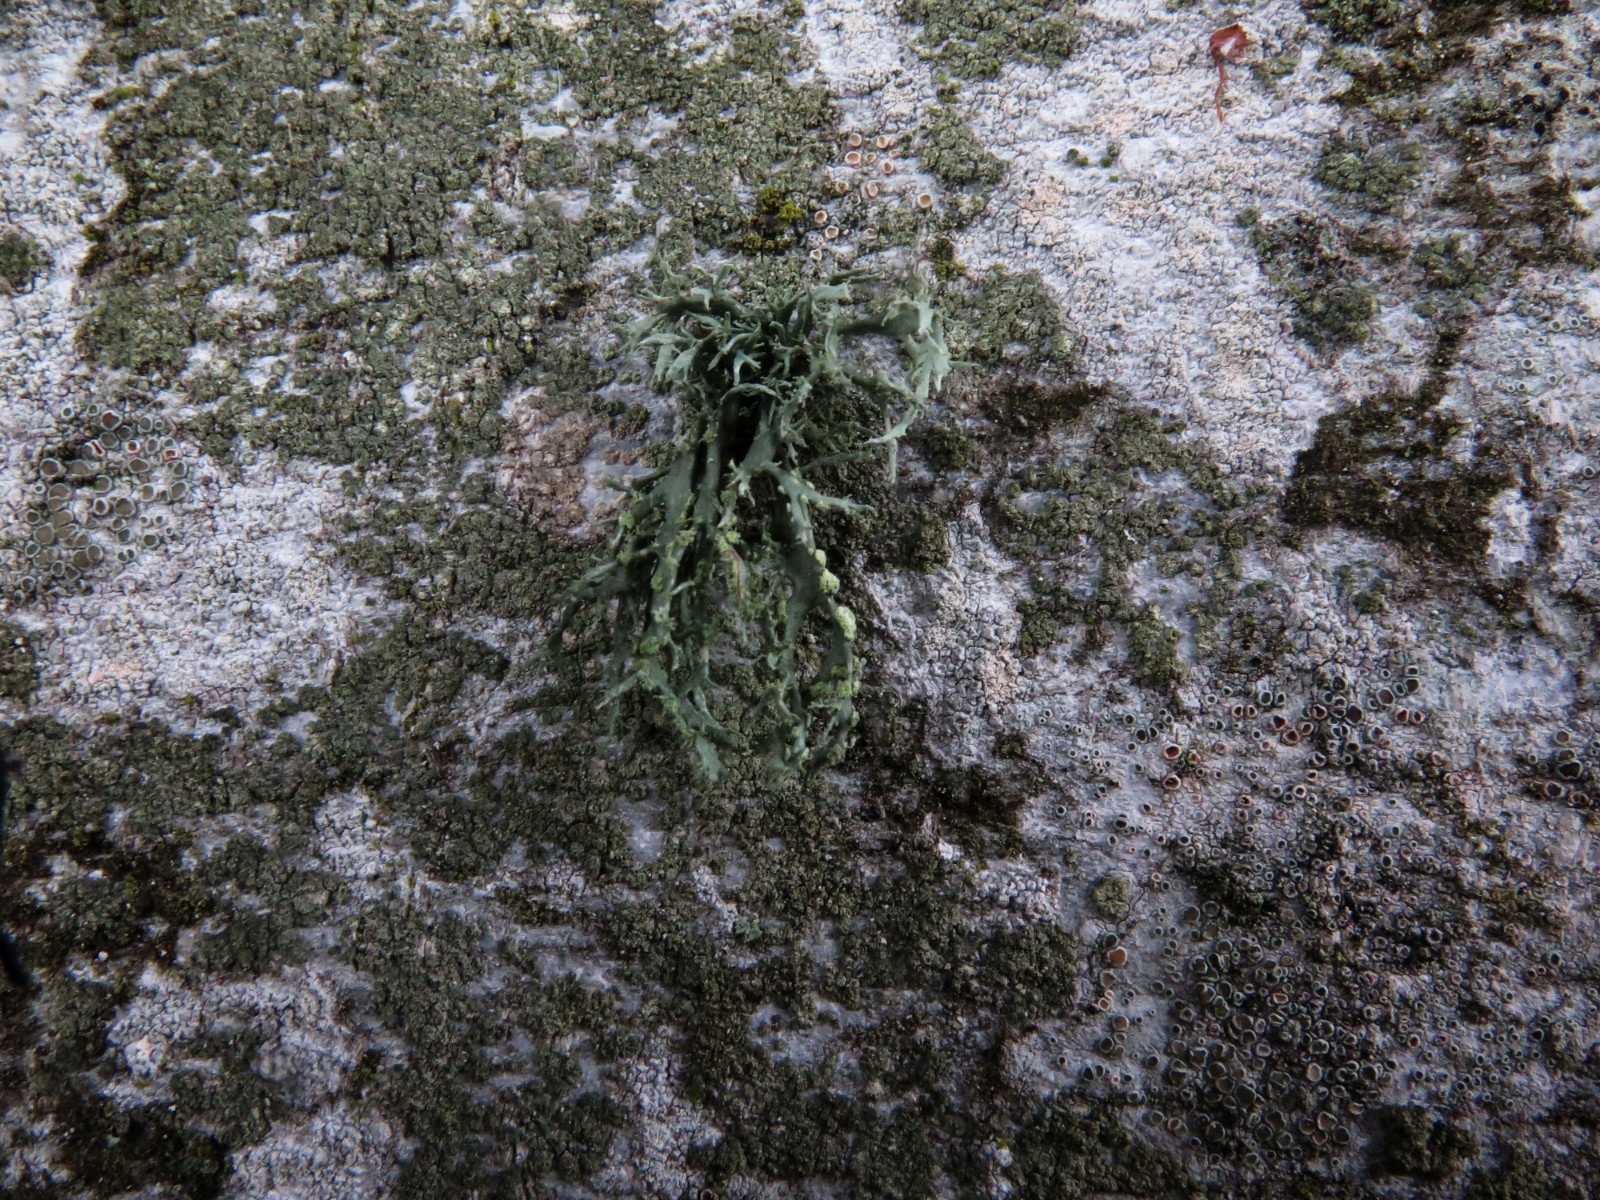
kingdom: Fungi
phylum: Ascomycota
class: Lecanoromycetes
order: Lecanorales
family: Ramalinaceae
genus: Ramalina
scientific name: Ramalina farinacea
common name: melet grenlav
